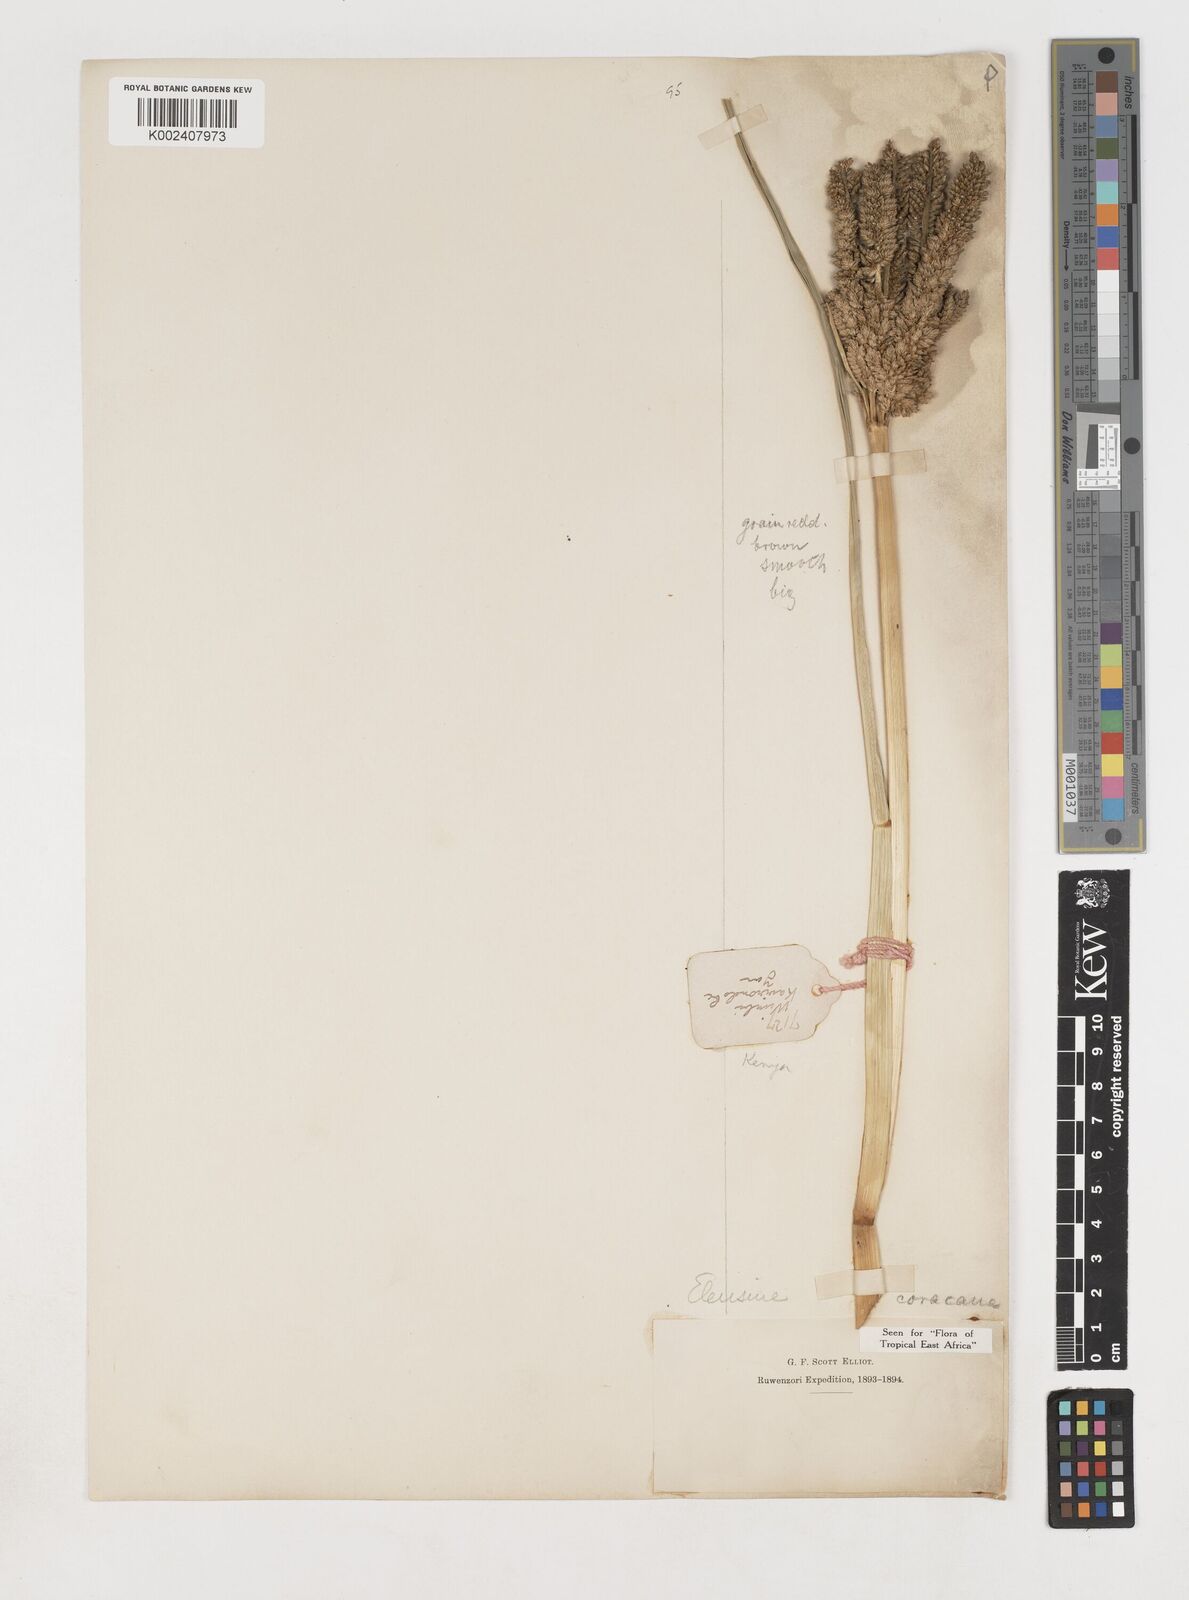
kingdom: Plantae
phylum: Tracheophyta
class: Liliopsida
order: Poales
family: Poaceae
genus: Eleusine
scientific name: Eleusine coracana
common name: Finger millet
